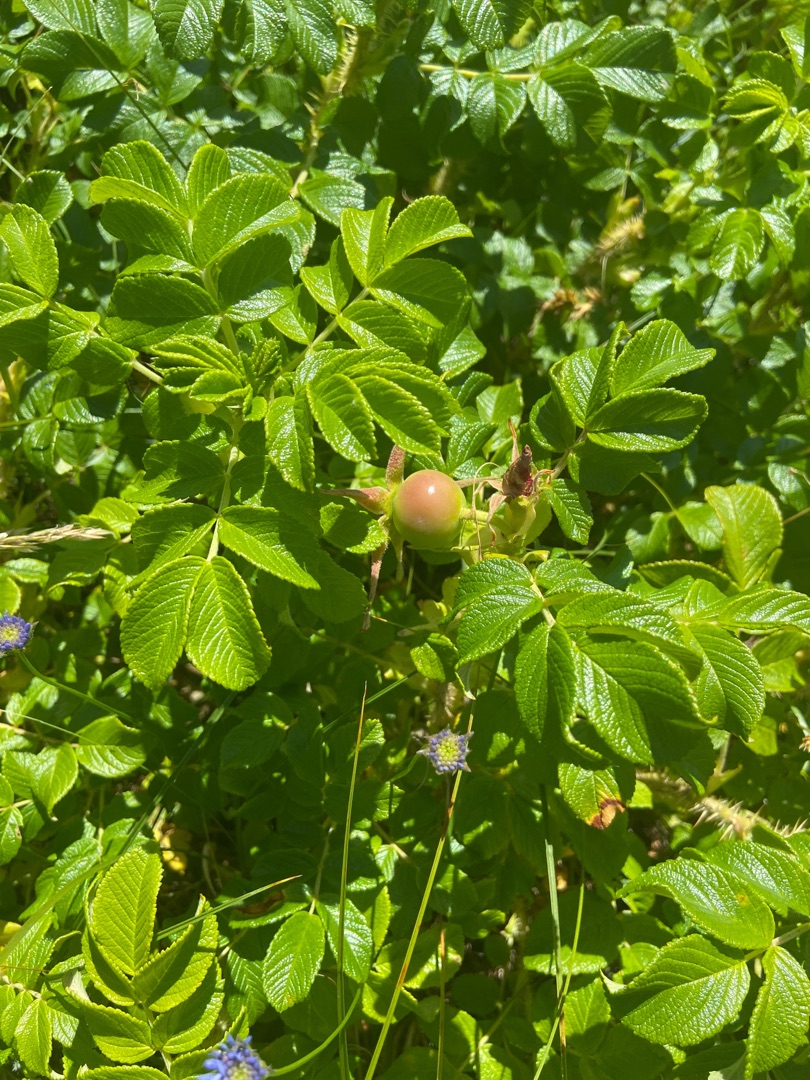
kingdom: Plantae
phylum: Tracheophyta
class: Magnoliopsida
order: Rosales
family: Rosaceae
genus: Rosa
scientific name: Rosa rugosa
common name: Rynket rose
